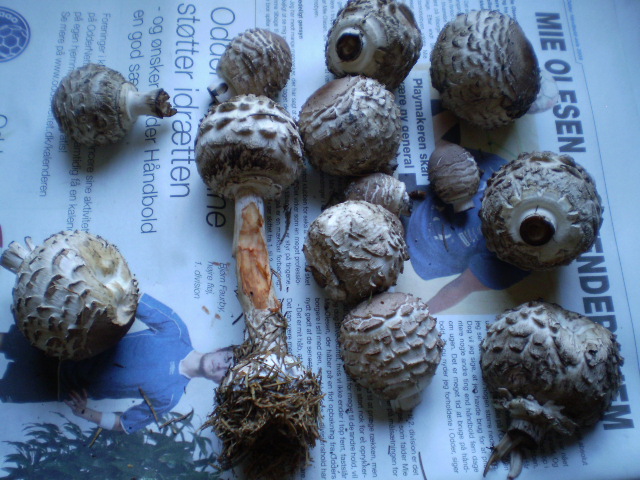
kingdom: Fungi
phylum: Basidiomycota
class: Agaricomycetes
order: Agaricales
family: Agaricaceae
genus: Chlorophyllum
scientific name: Chlorophyllum olivieri
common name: almindelig rabarberhat
